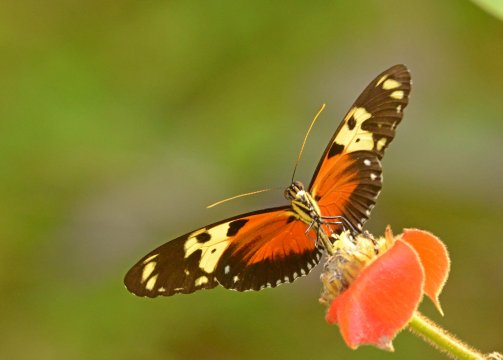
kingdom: Animalia
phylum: Arthropoda
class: Insecta
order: Lepidoptera
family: Nymphalidae
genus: Heliconius
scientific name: Heliconius hecale
